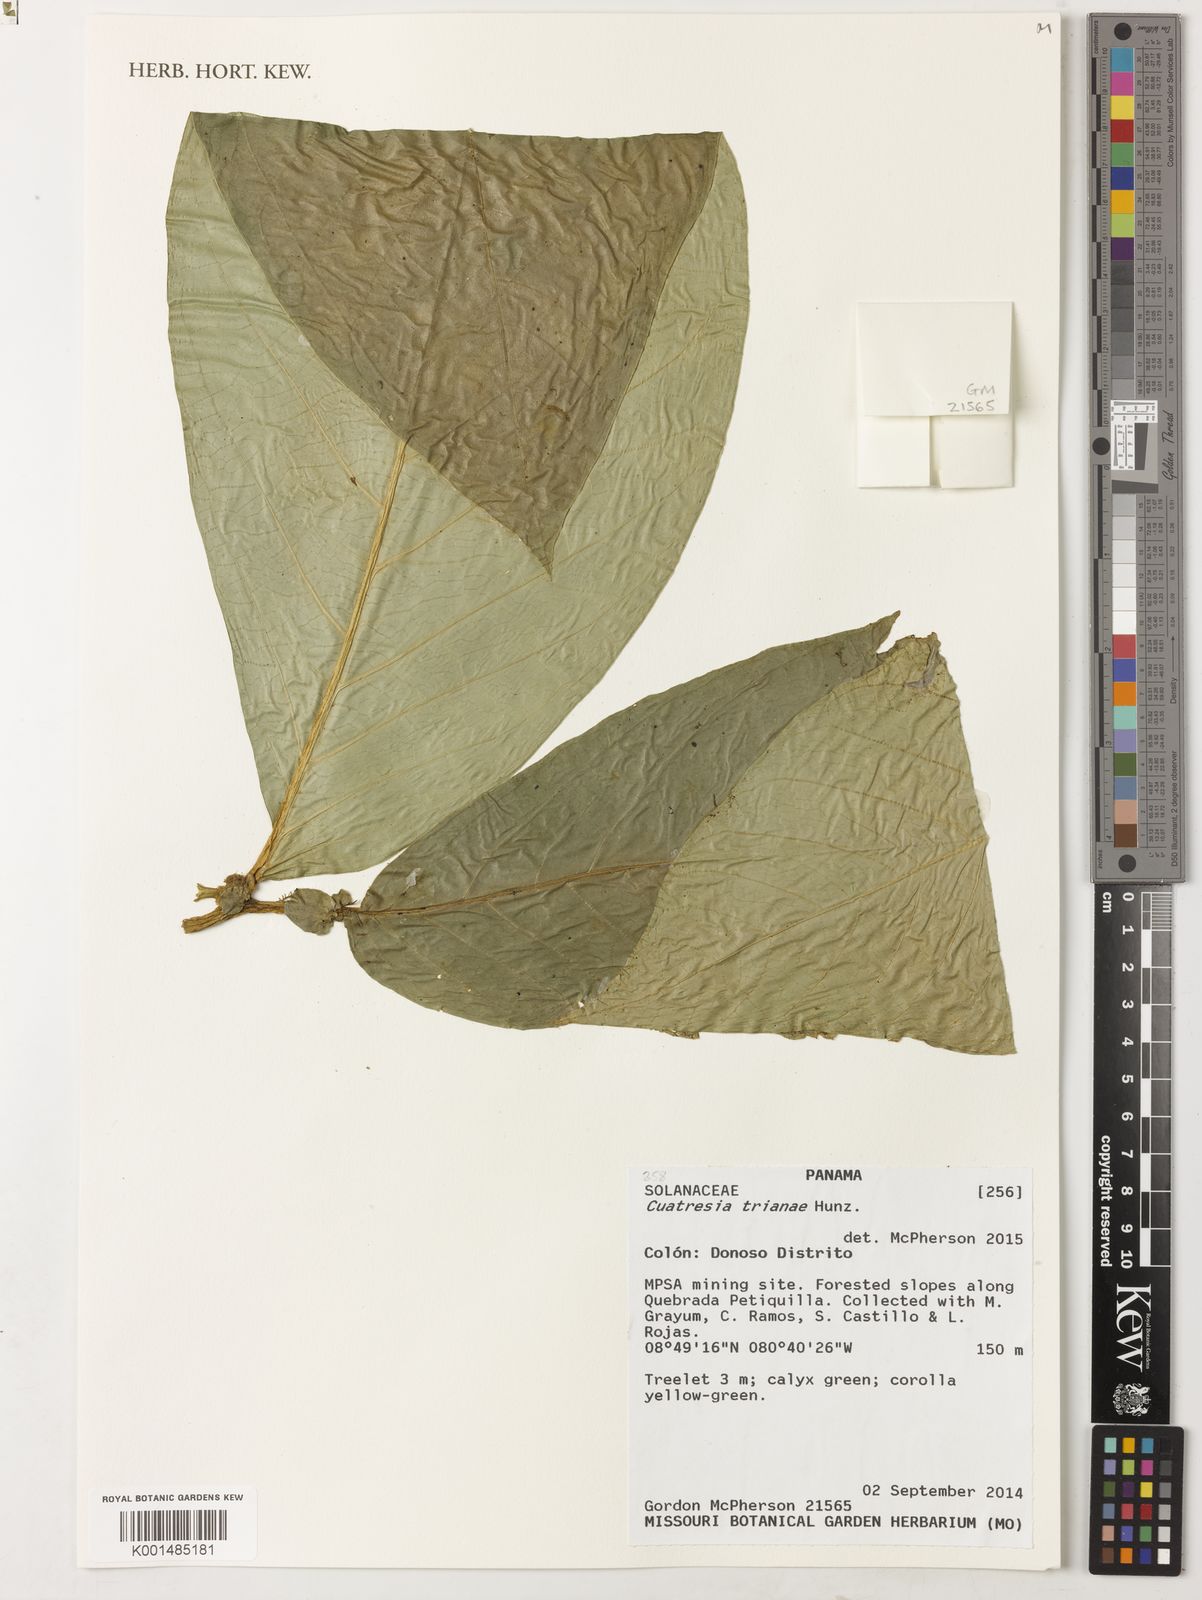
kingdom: Plantae
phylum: Tracheophyta
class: Magnoliopsida
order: Solanales
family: Solanaceae
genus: Cuatresia
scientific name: Cuatresia trianae
